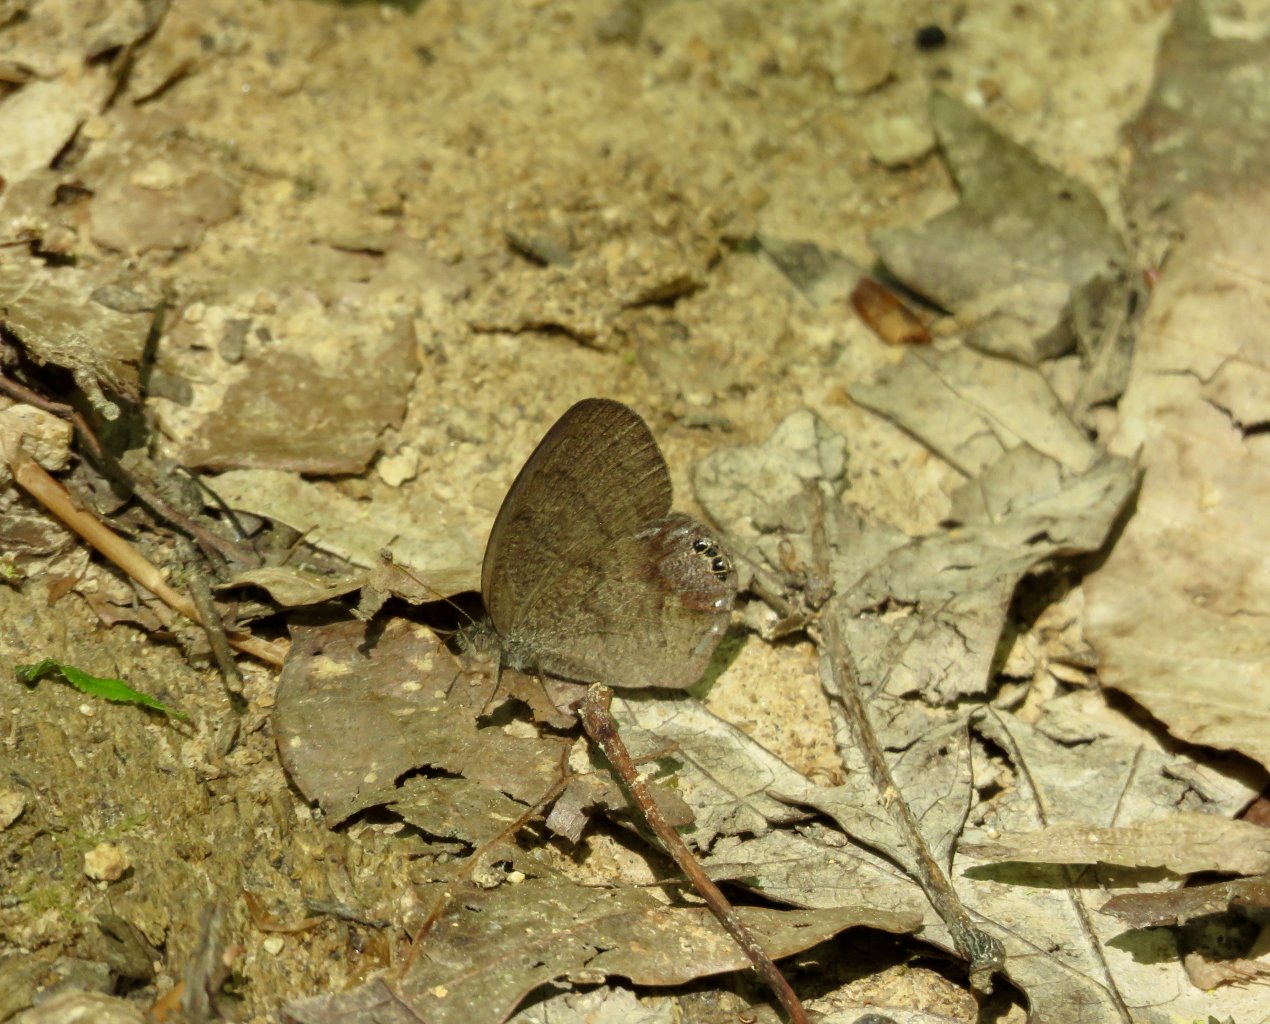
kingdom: Animalia
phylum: Arthropoda
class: Insecta
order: Lepidoptera
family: Nymphalidae
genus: Euptychia
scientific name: Euptychia cornelius
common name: Gemmed Satyr
